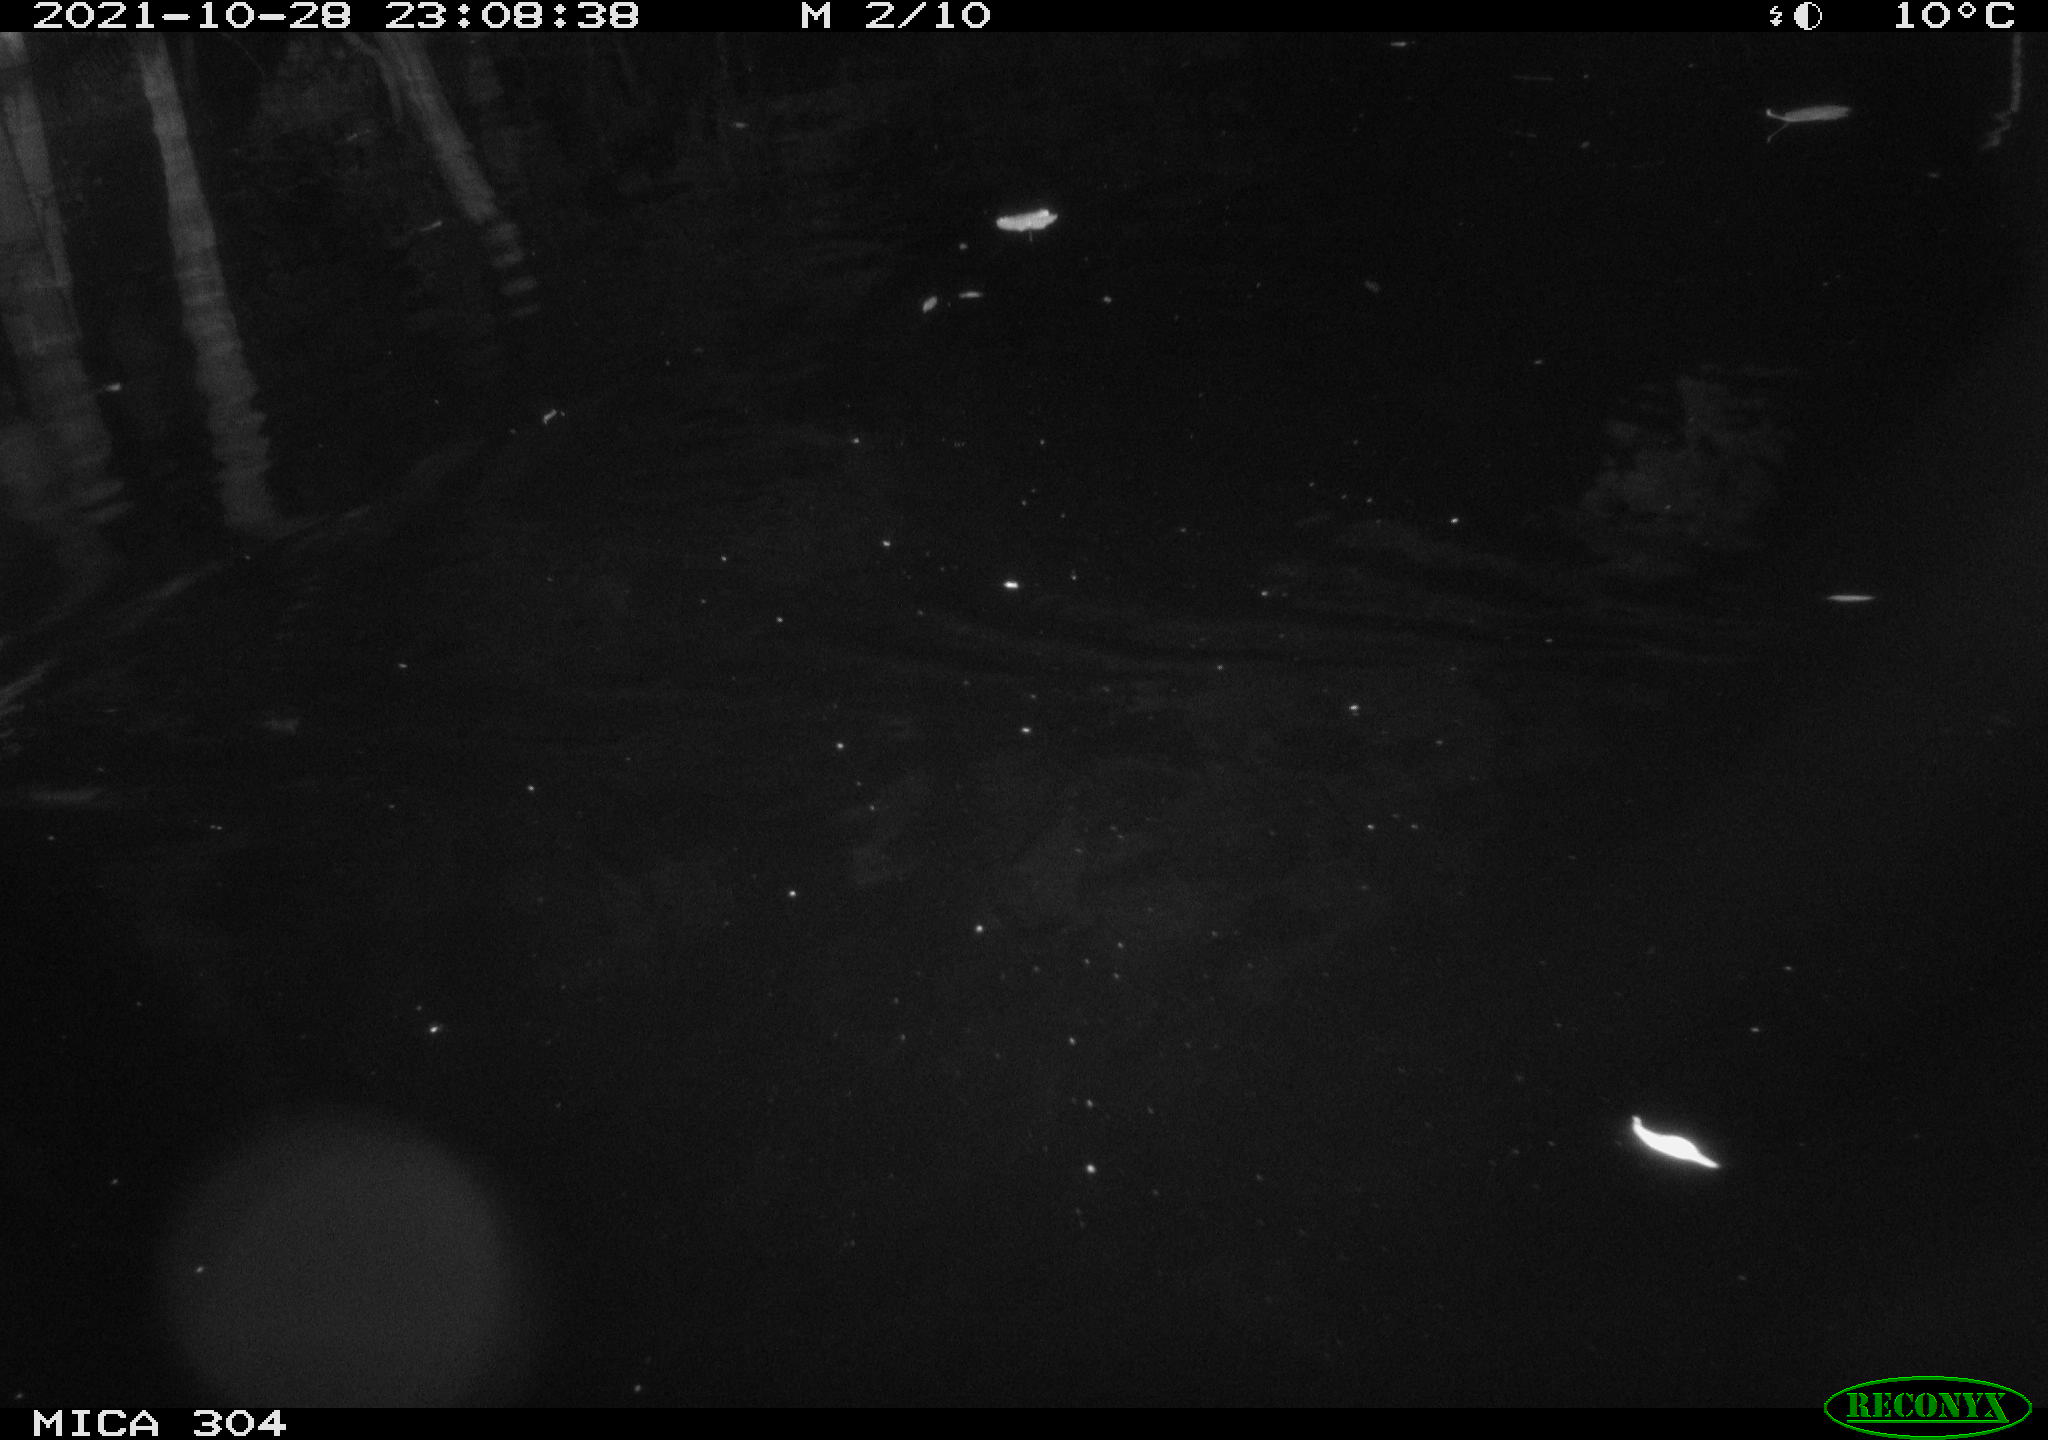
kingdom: Animalia
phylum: Chordata
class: Mammalia
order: Rodentia
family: Muridae
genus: Rattus
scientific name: Rattus norvegicus
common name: Brown rat
